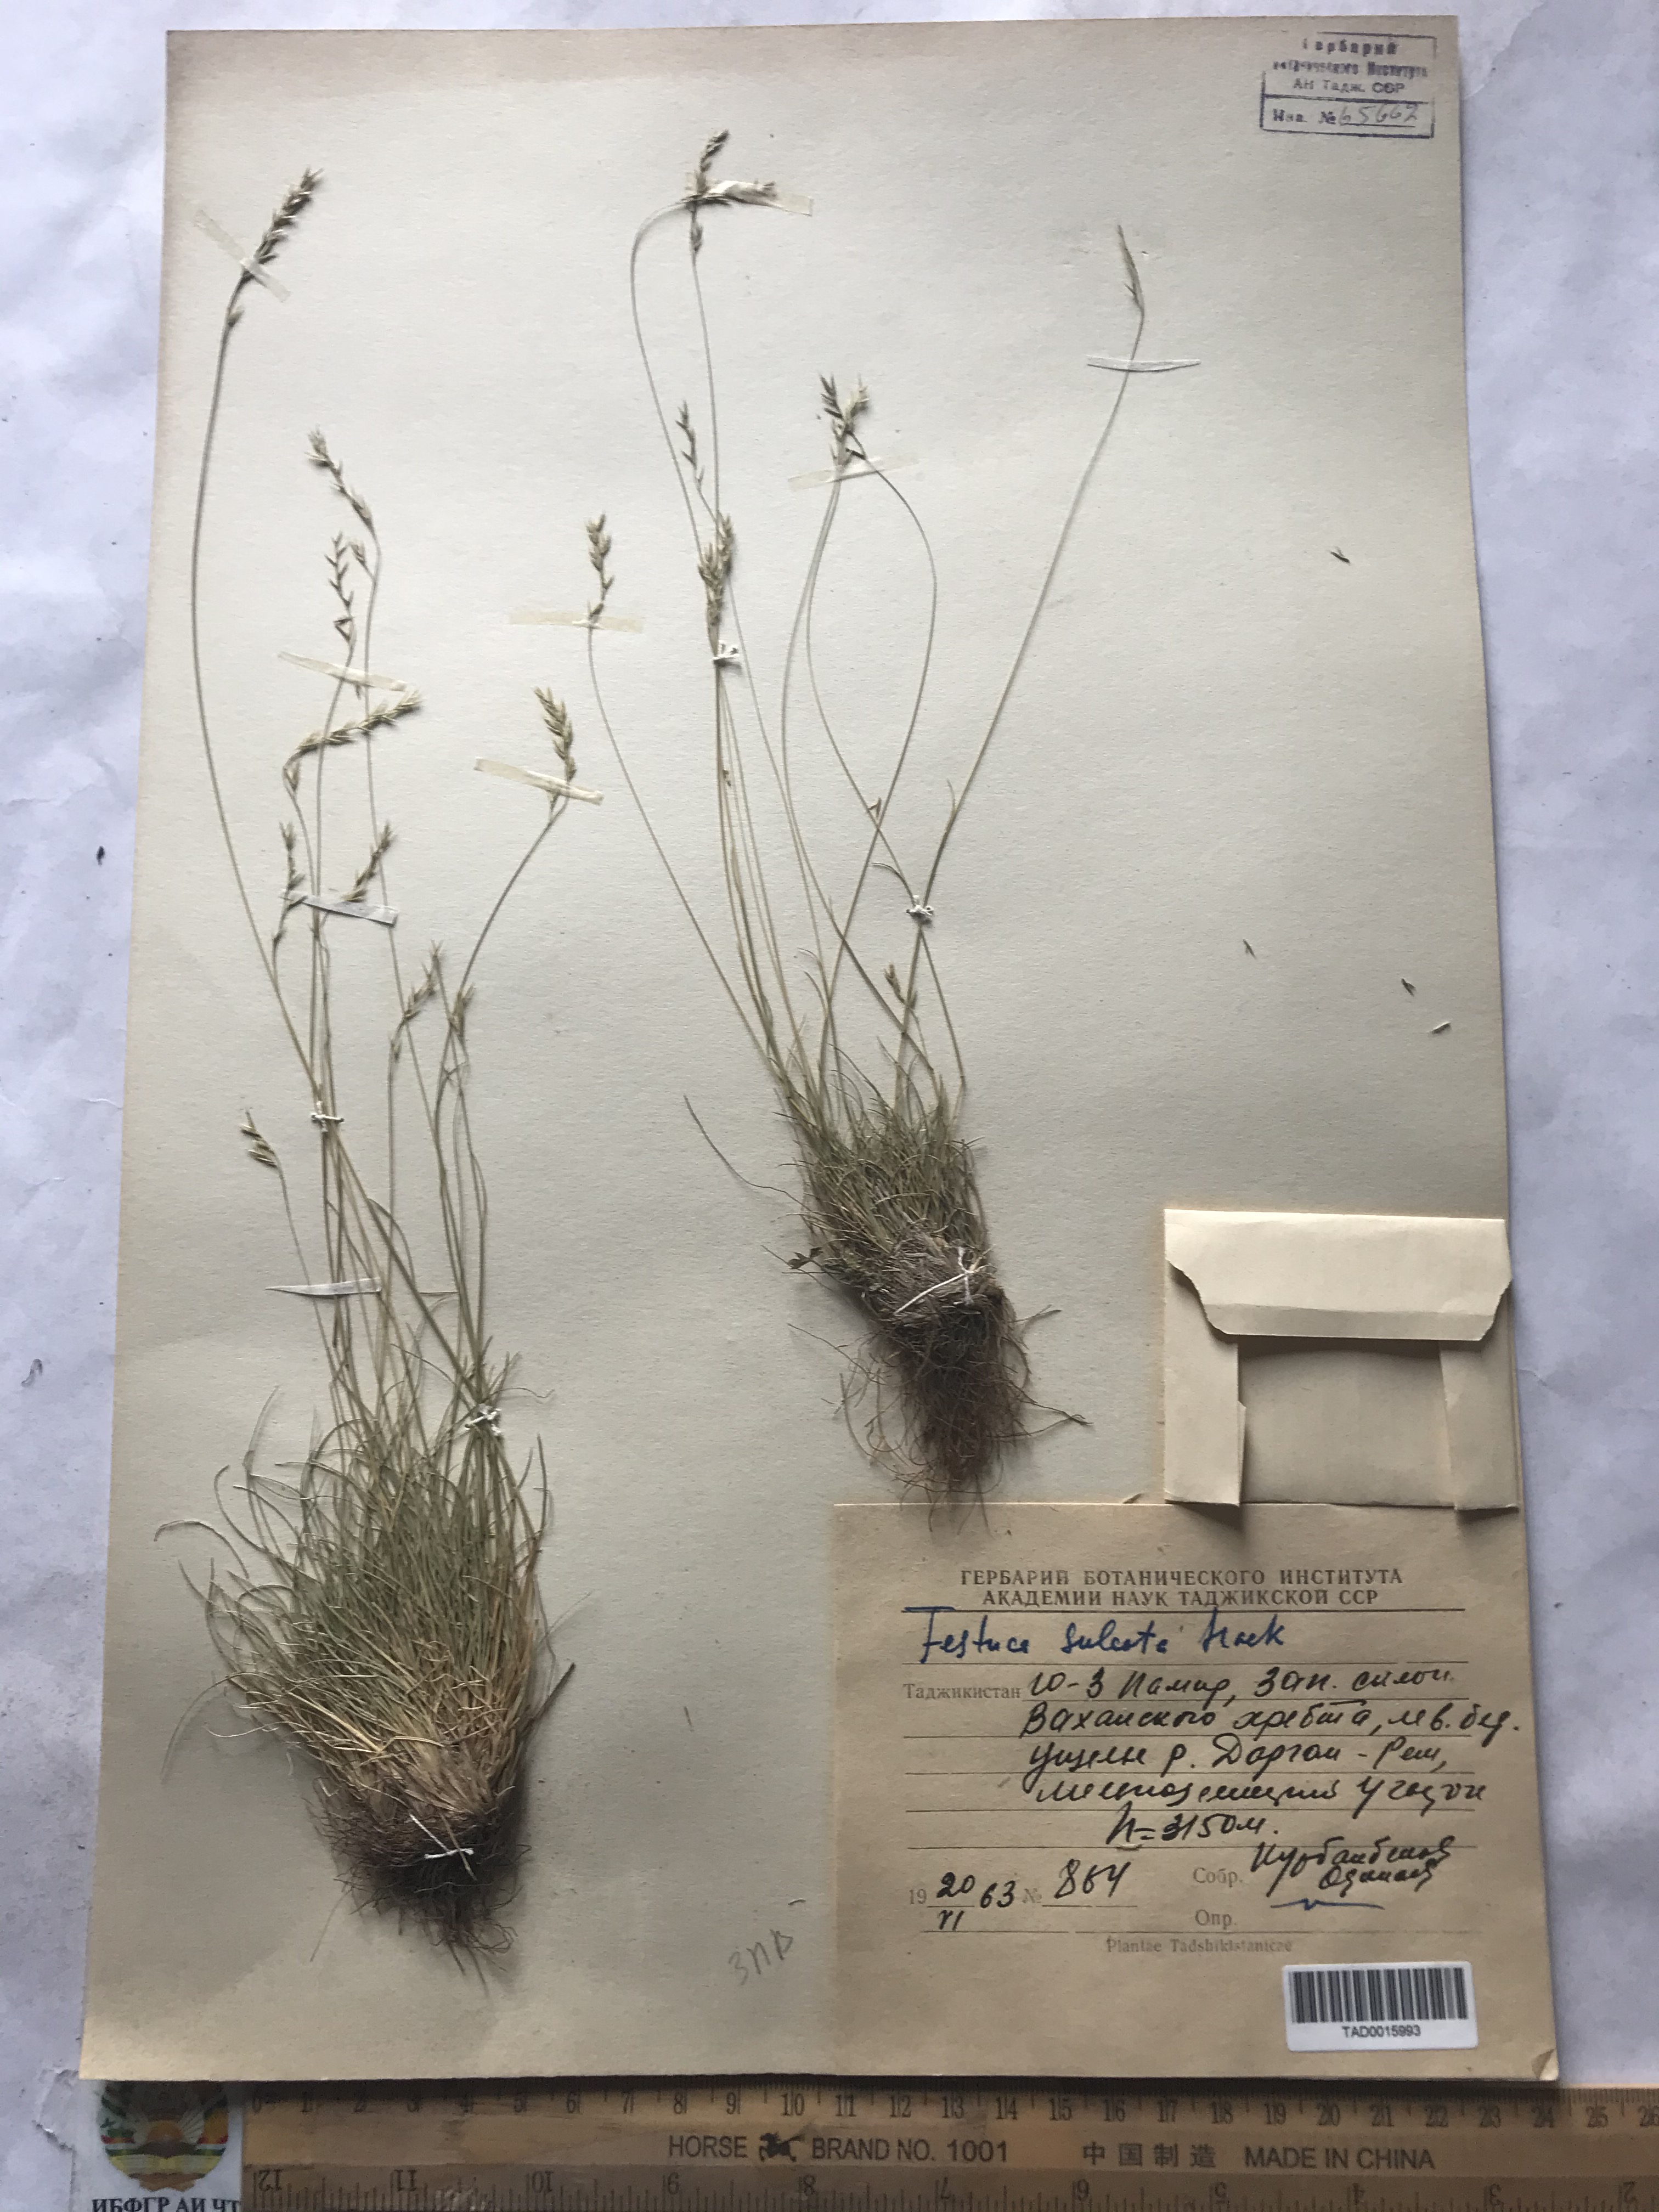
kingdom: Plantae
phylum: Tracheophyta
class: Liliopsida
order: Poales
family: Poaceae
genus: Festuca
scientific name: Festuca sulcata
